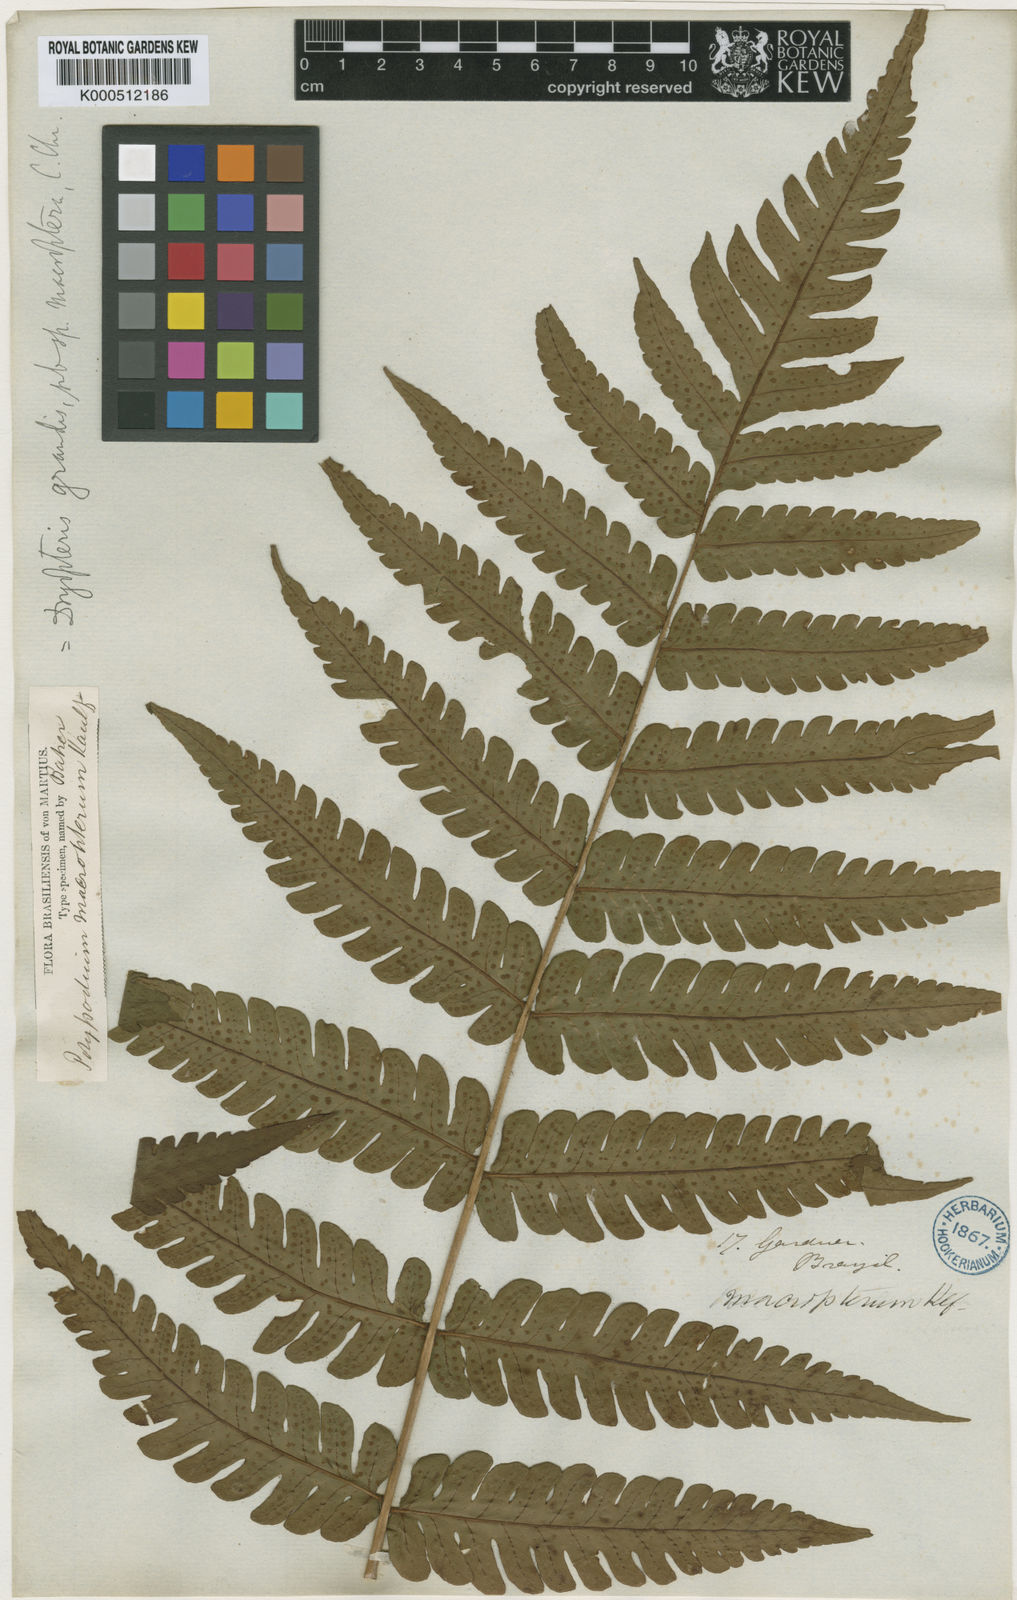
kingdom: Plantae
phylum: Tracheophyta
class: Polypodiopsida
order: Polypodiales
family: Dryopteridaceae
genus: Megalastrum
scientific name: Megalastrum grande
